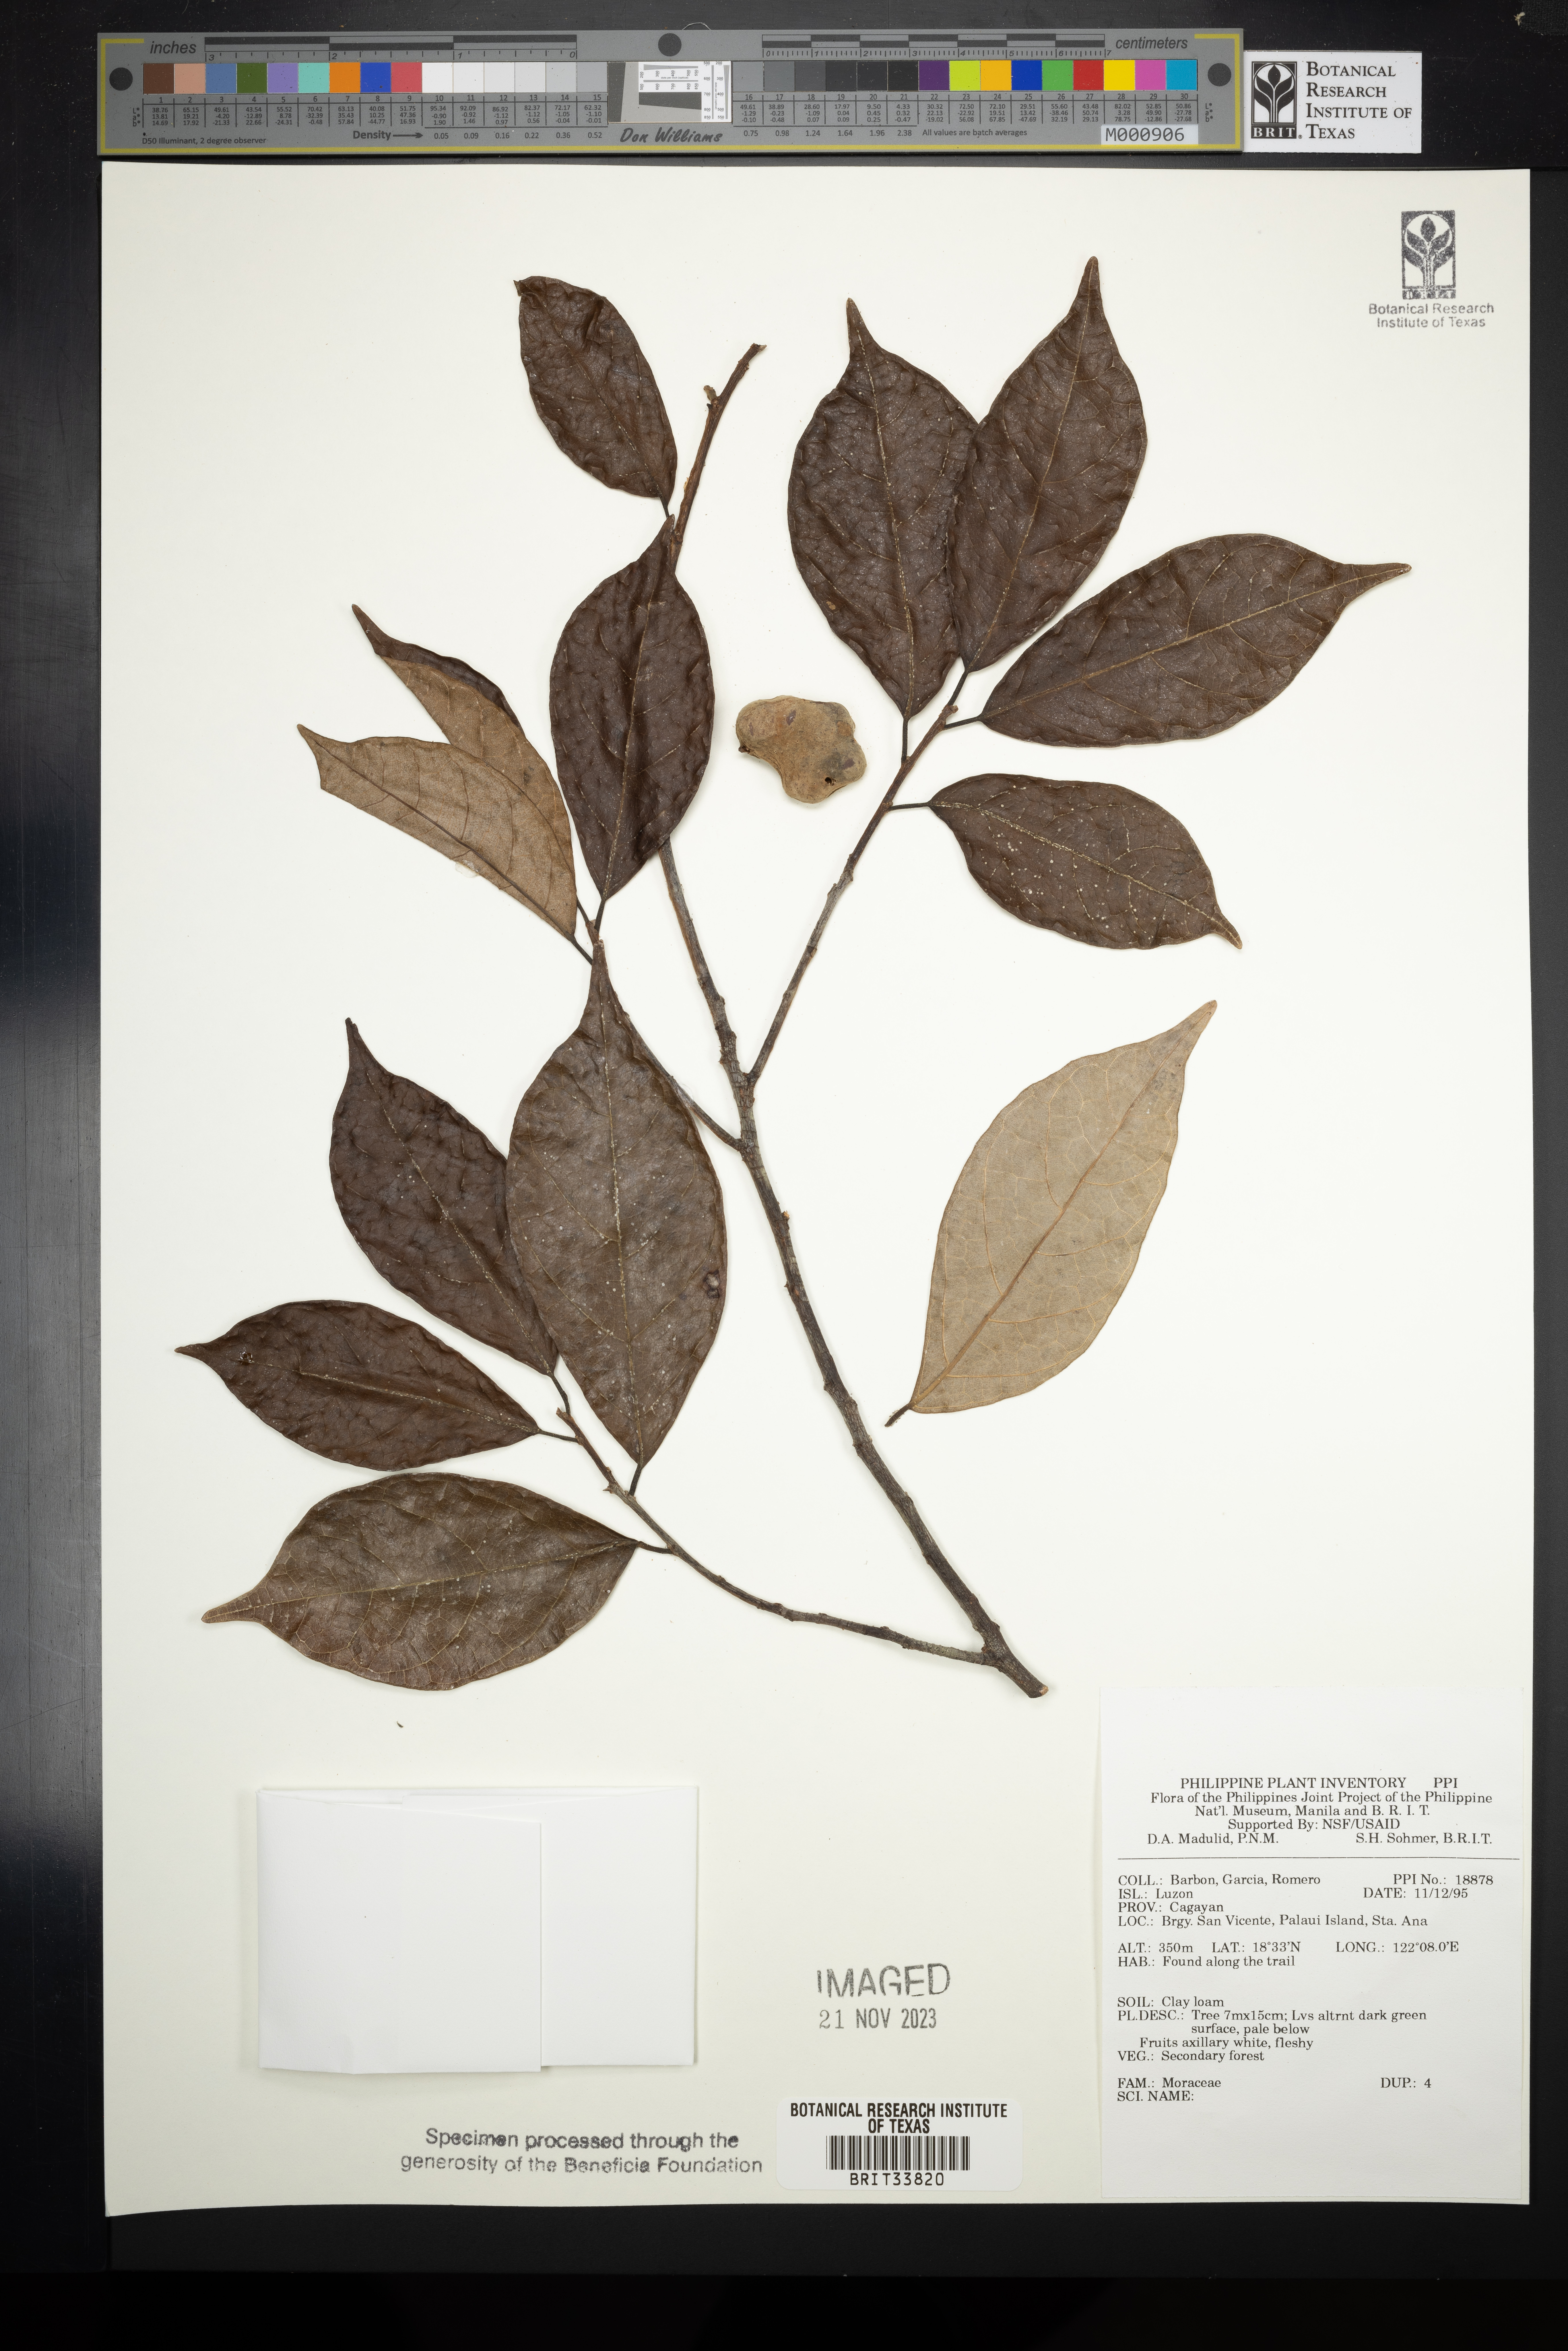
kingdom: Plantae
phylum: Tracheophyta
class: Magnoliopsida
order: Rosales
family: Moraceae
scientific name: Moraceae
